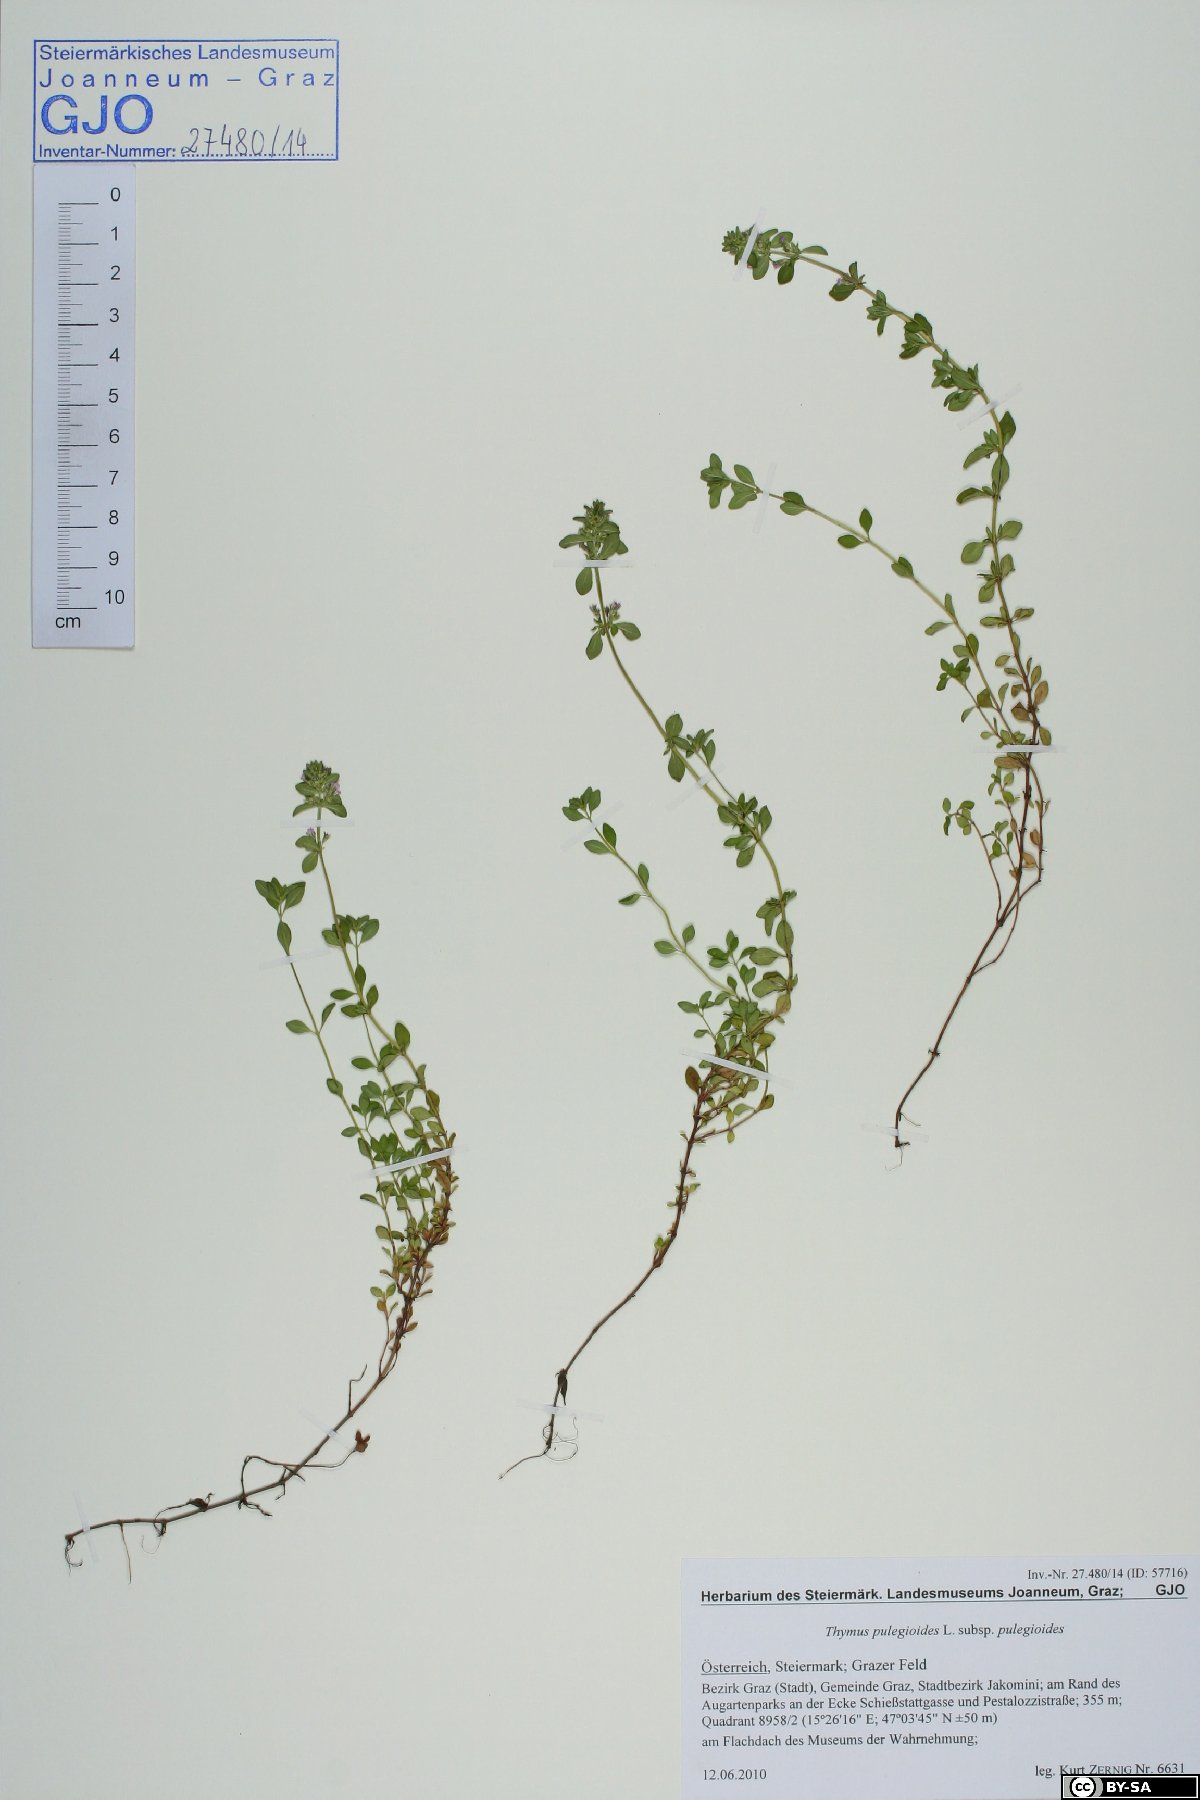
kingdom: Plantae
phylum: Tracheophyta
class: Magnoliopsida
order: Lamiales
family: Lamiaceae
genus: Thymus
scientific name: Thymus pulegioides
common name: Large thyme
